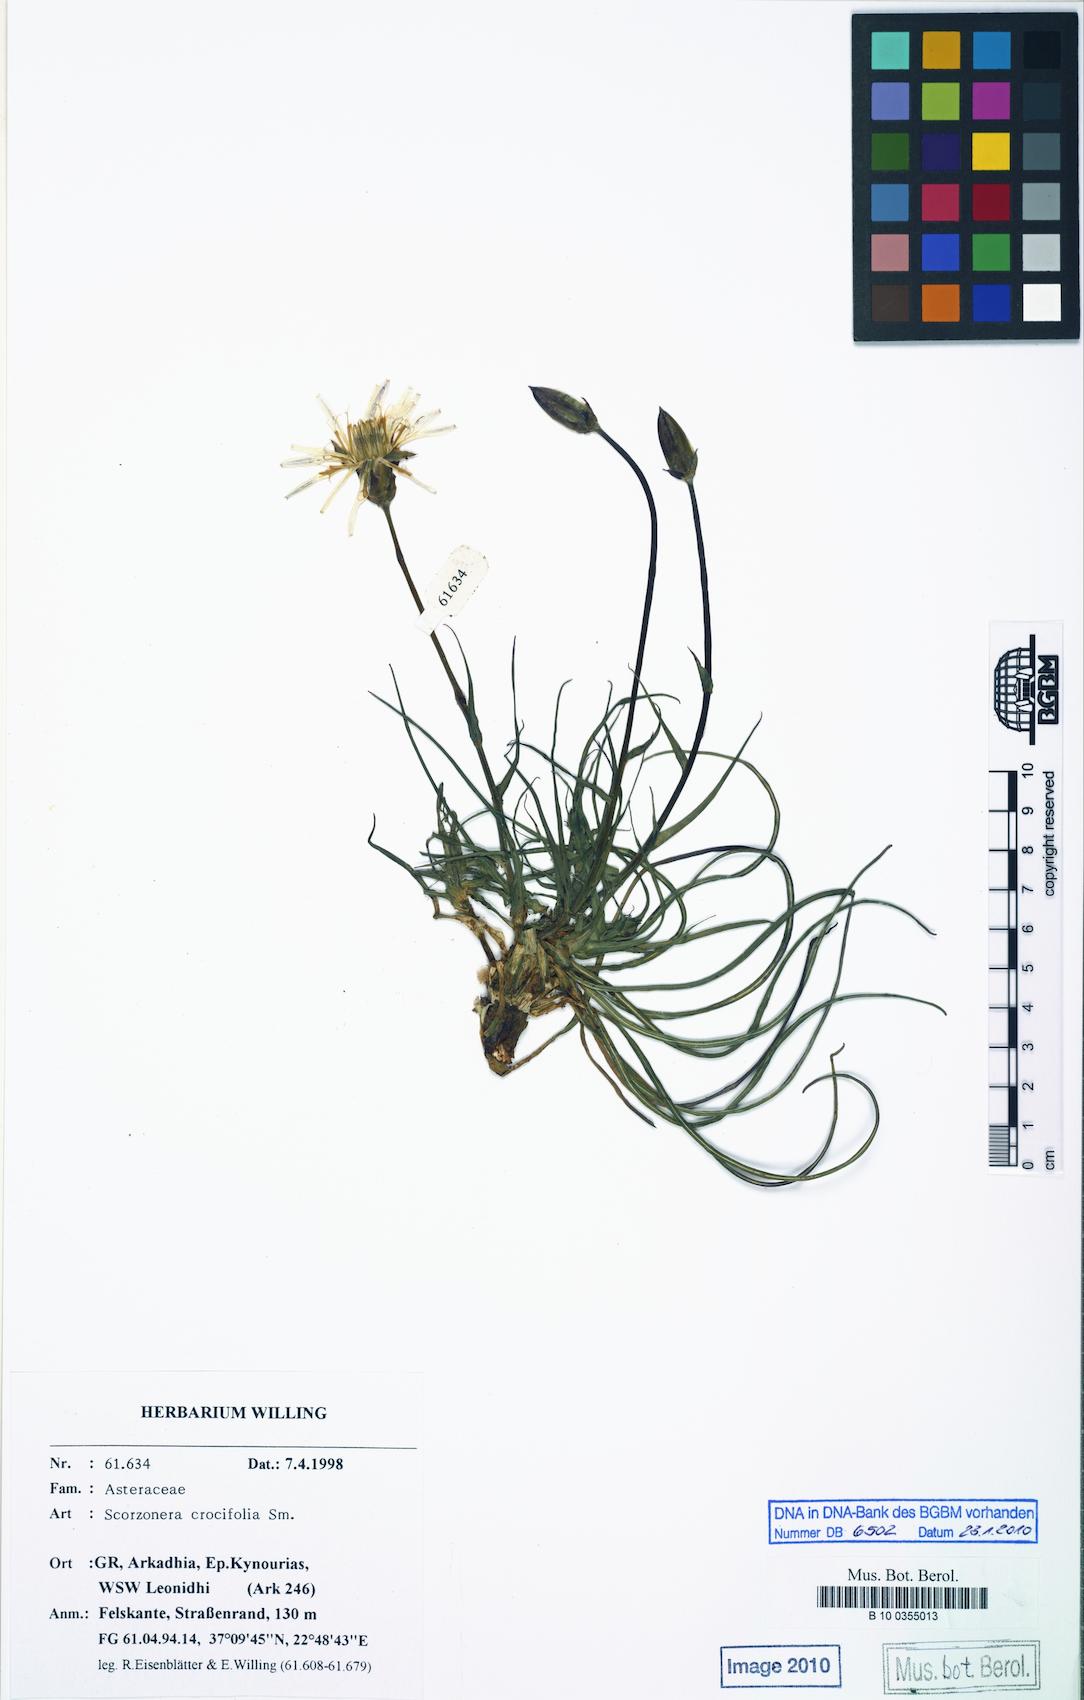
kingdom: Plantae
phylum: Tracheophyta
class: Magnoliopsida
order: Asterales
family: Asteraceae
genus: Pseudopodospermum
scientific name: Pseudopodospermum crocifolium
